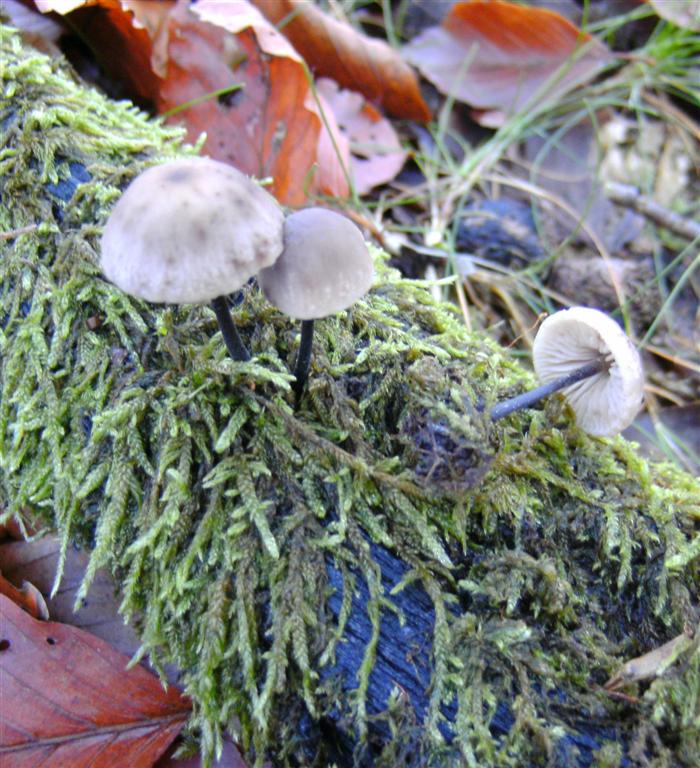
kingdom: Fungi
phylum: Basidiomycota
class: Agaricomycetes
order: Agaricales
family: Omphalotaceae
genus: Mycetinis
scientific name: Mycetinis alliaceus
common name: stor løghat
